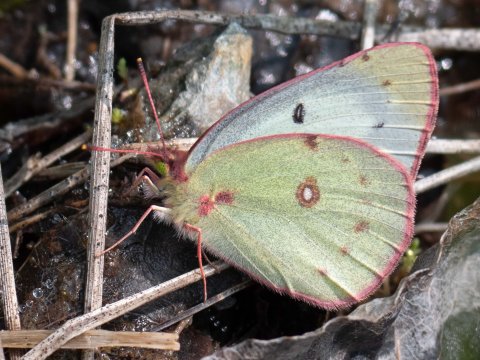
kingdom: Animalia
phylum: Arthropoda
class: Insecta
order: Lepidoptera
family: Pieridae
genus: Colias
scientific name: Colias philodice
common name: Clouded Sulphur
